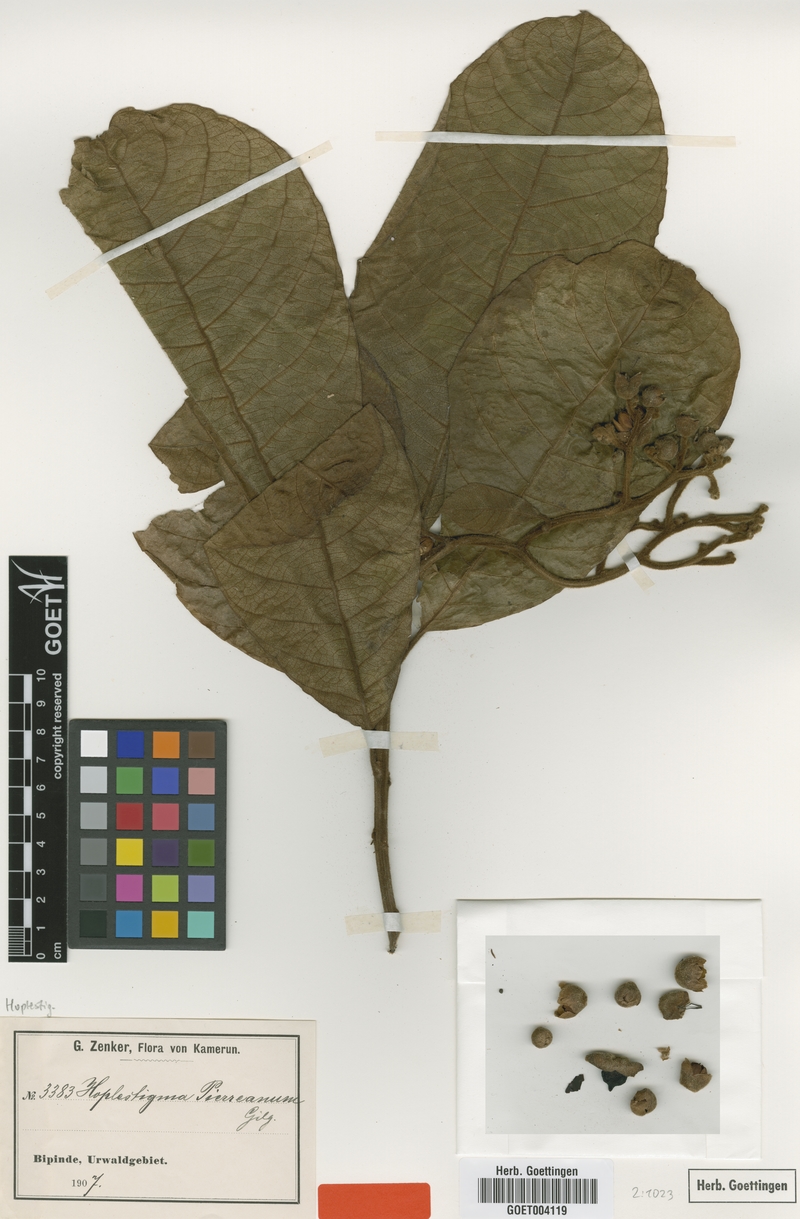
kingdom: Plantae
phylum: Tracheophyta
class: Magnoliopsida
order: Boraginales
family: Hoplestigmataceae
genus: Hoplestigma
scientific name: Hoplestigma pierreanum
